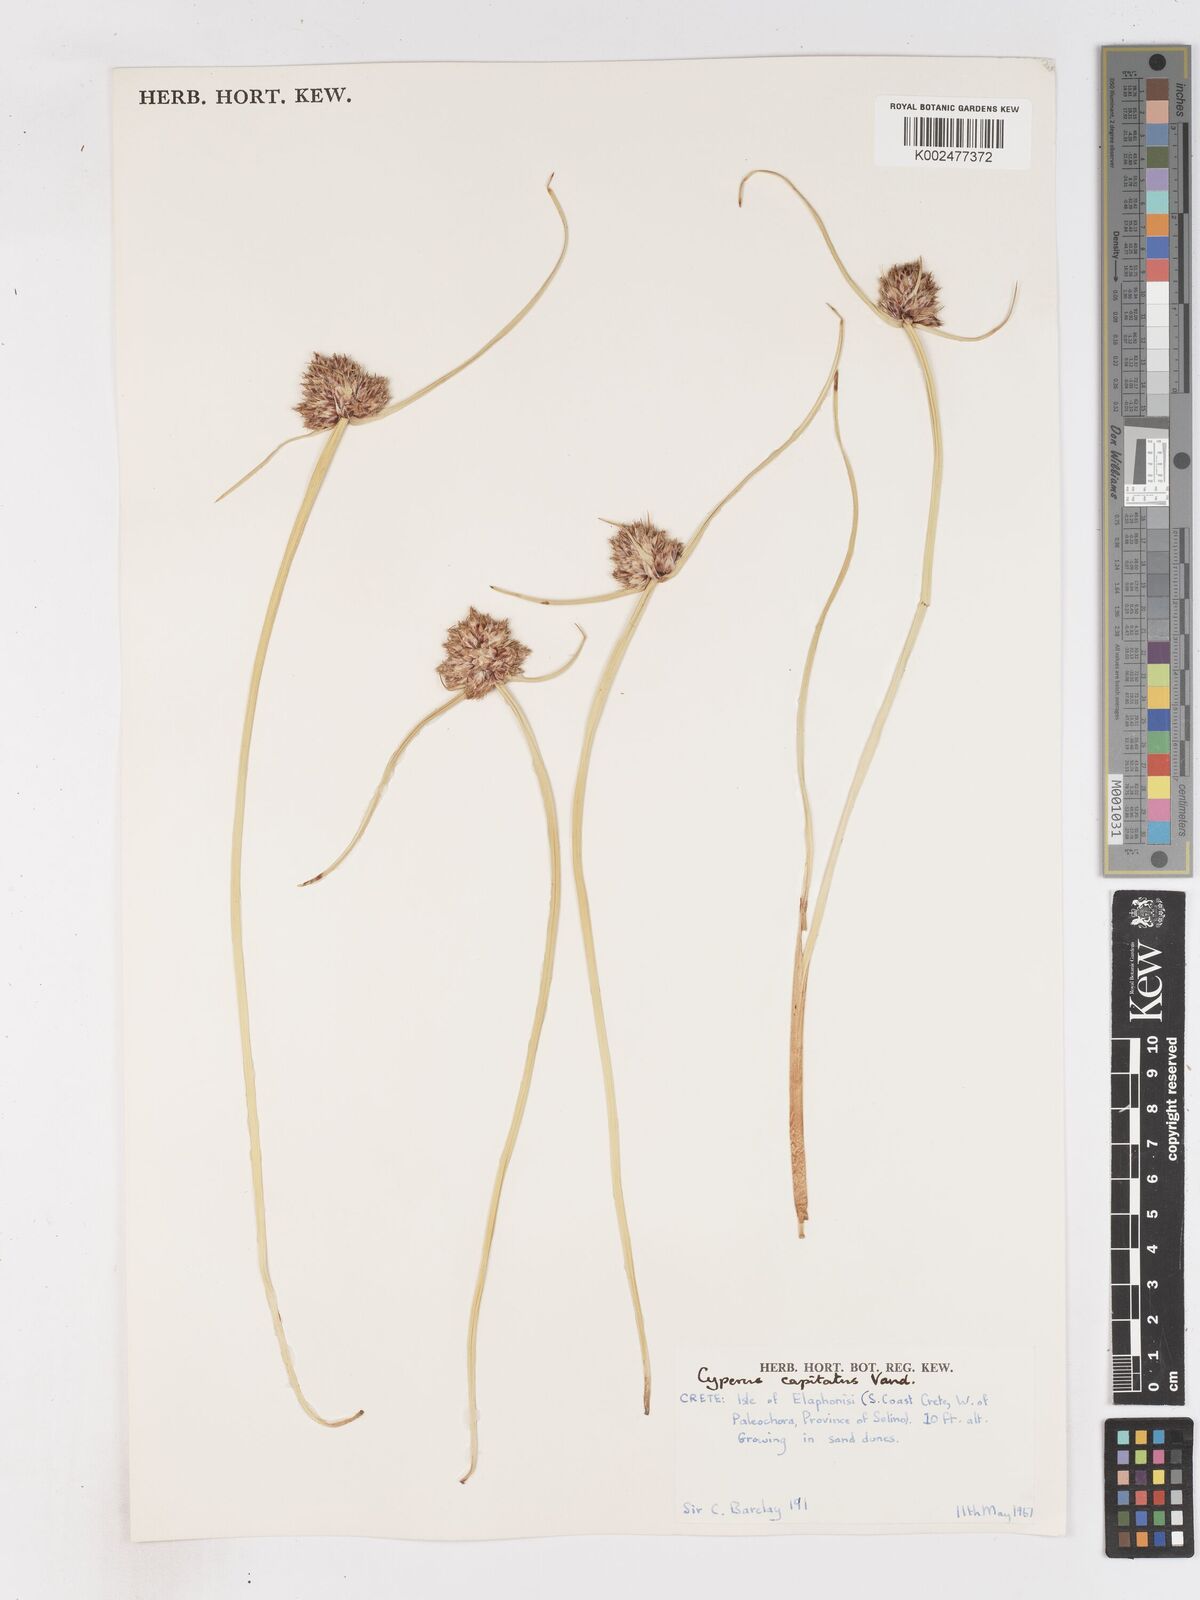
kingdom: Plantae
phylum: Tracheophyta
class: Liliopsida
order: Poales
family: Cyperaceae
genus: Cyperus
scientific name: Cyperus capitatus
